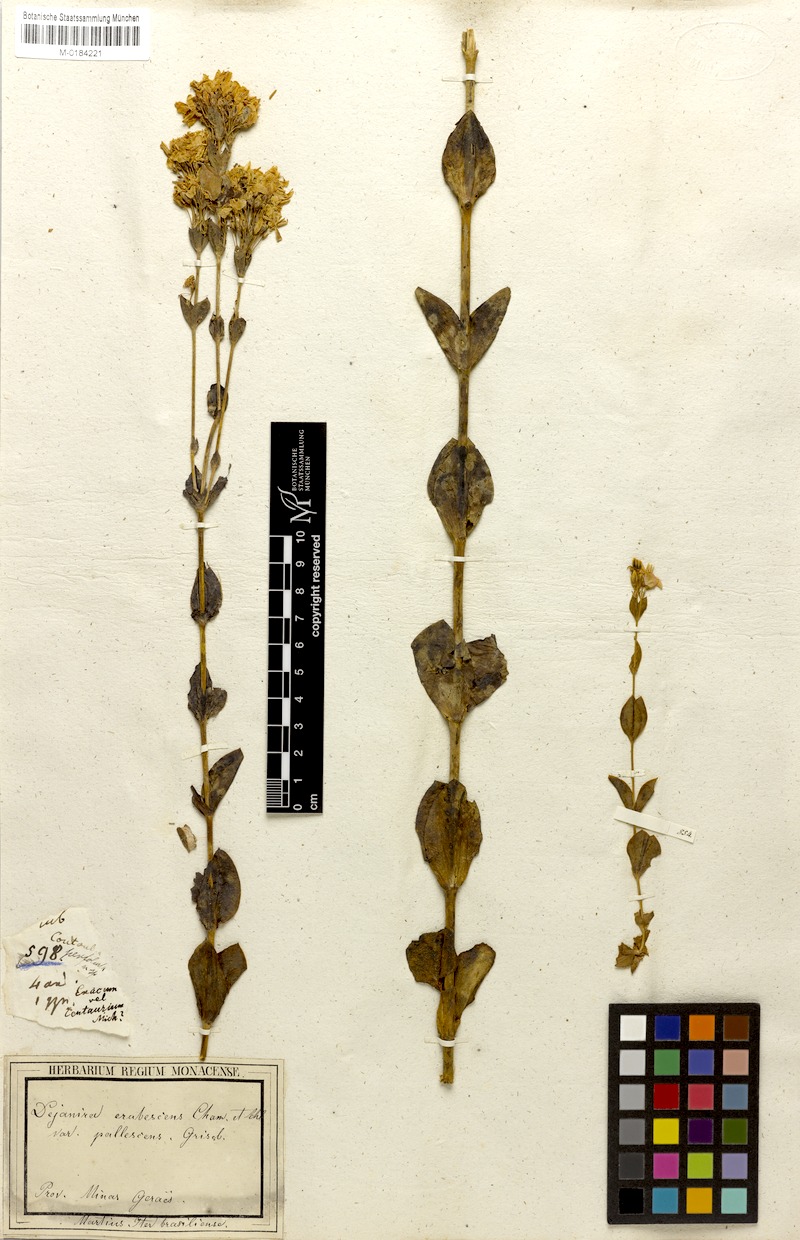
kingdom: Plantae
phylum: Tracheophyta
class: Magnoliopsida
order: Gentianales
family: Gentianaceae
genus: Deianira
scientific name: Deianira pallescens
